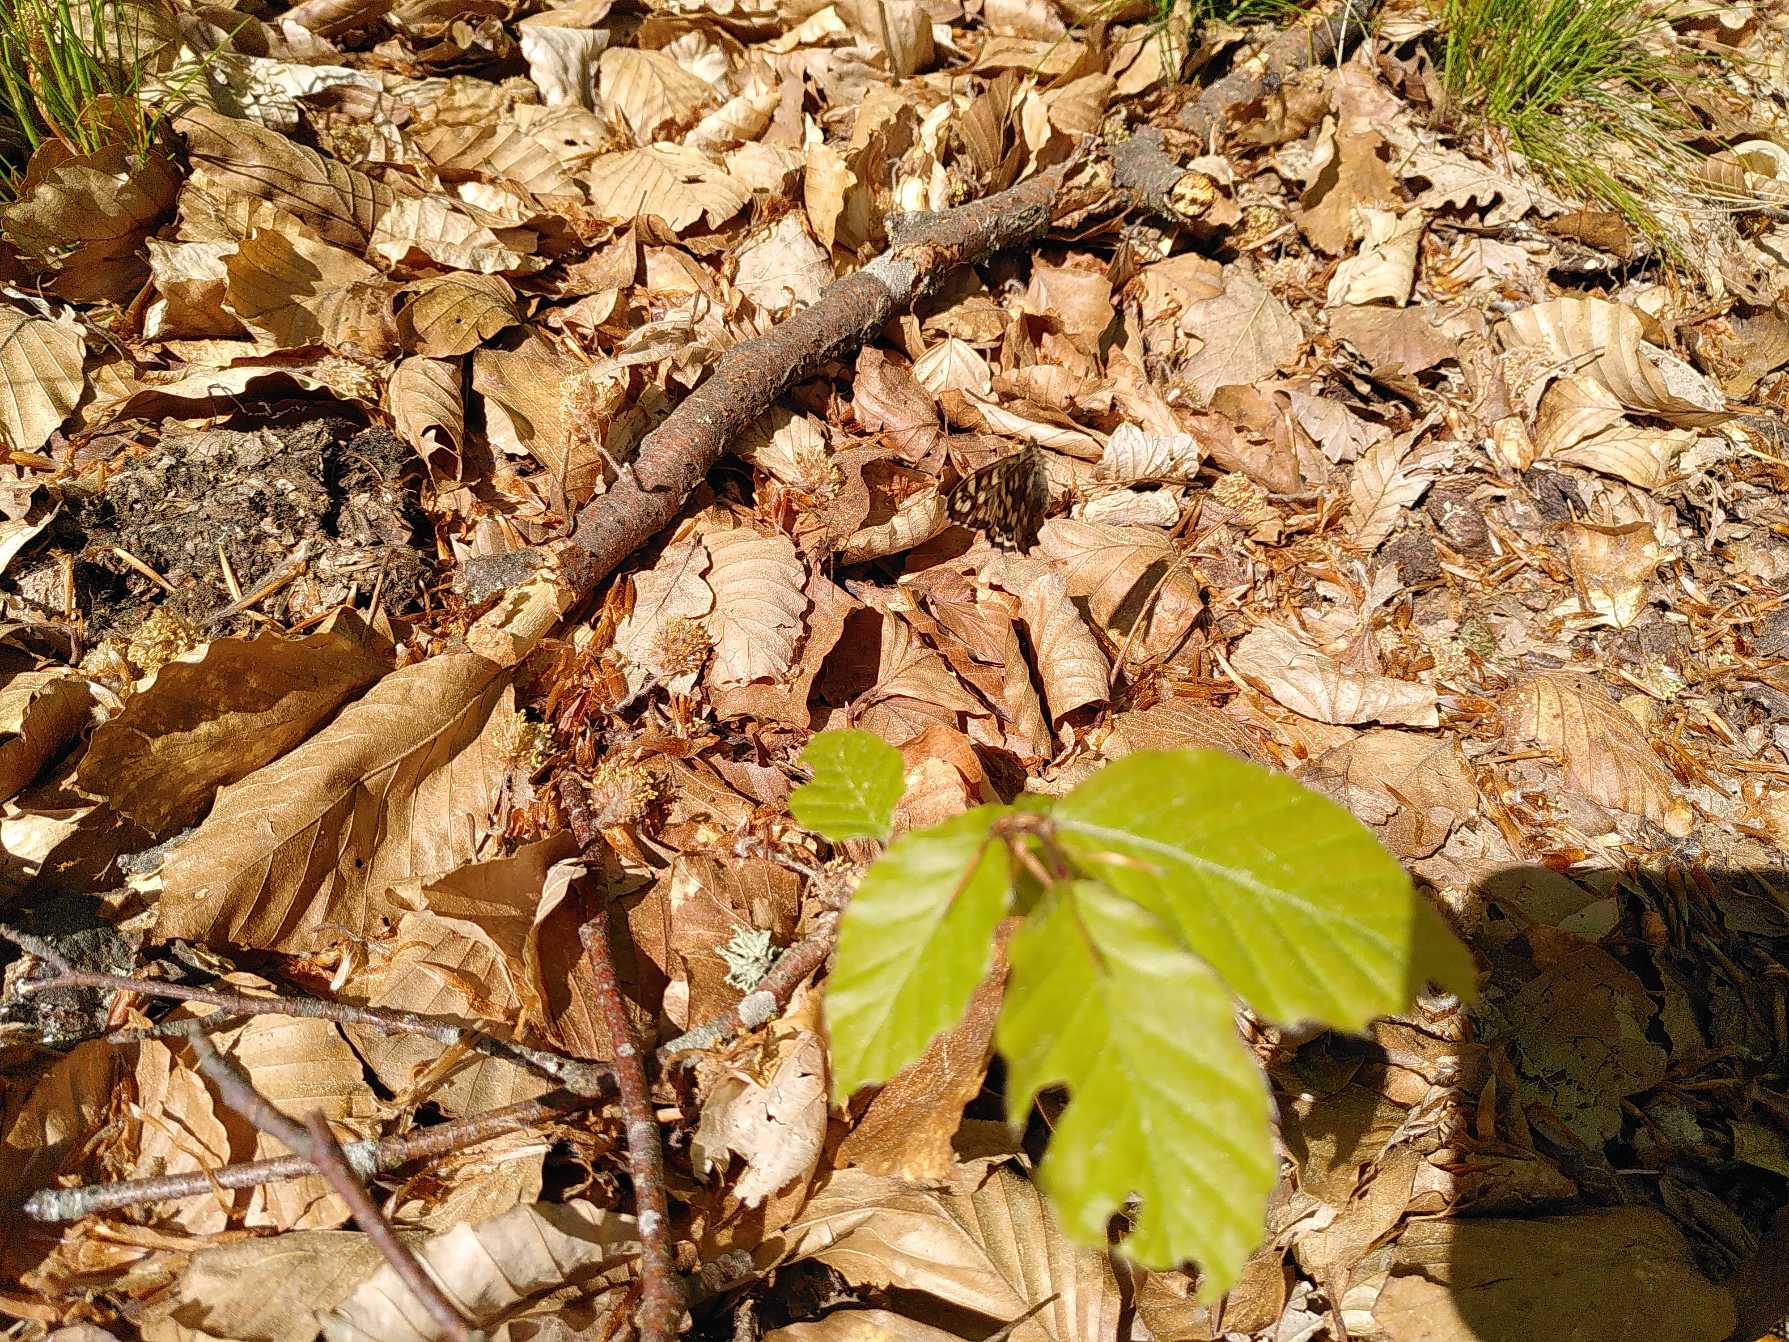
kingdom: Animalia
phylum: Arthropoda
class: Insecta
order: Lepidoptera
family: Nymphalidae
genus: Pararge
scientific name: Pararge aegeria
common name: Skovrandøje
